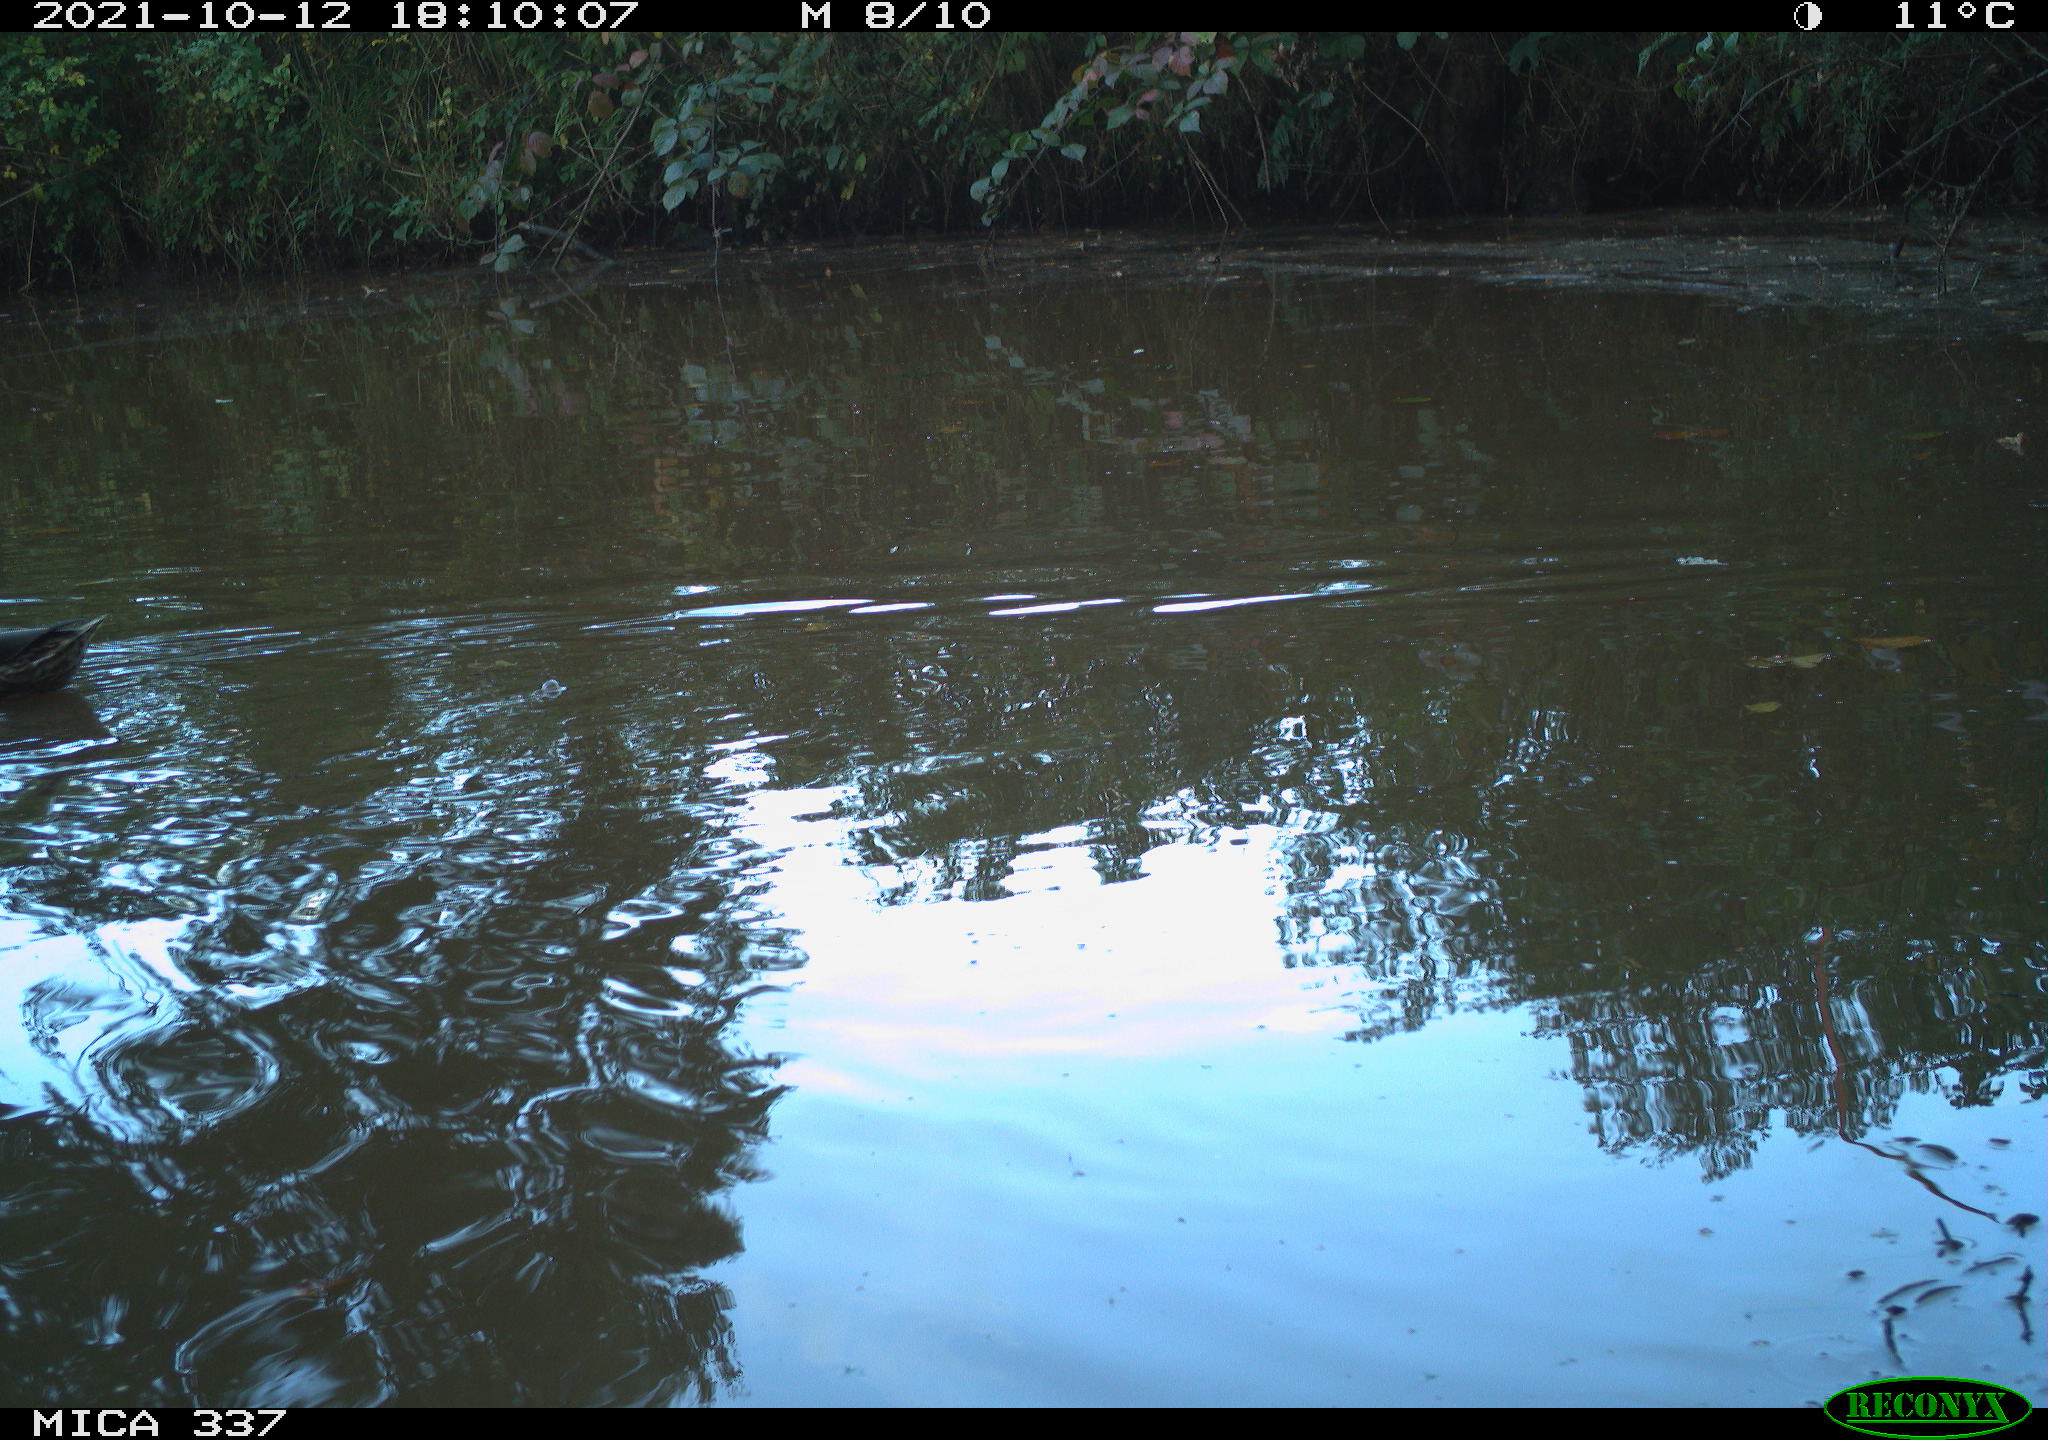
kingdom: Animalia
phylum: Chordata
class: Aves
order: Anseriformes
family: Anatidae
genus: Anas
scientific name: Anas platyrhynchos
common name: Mallard
